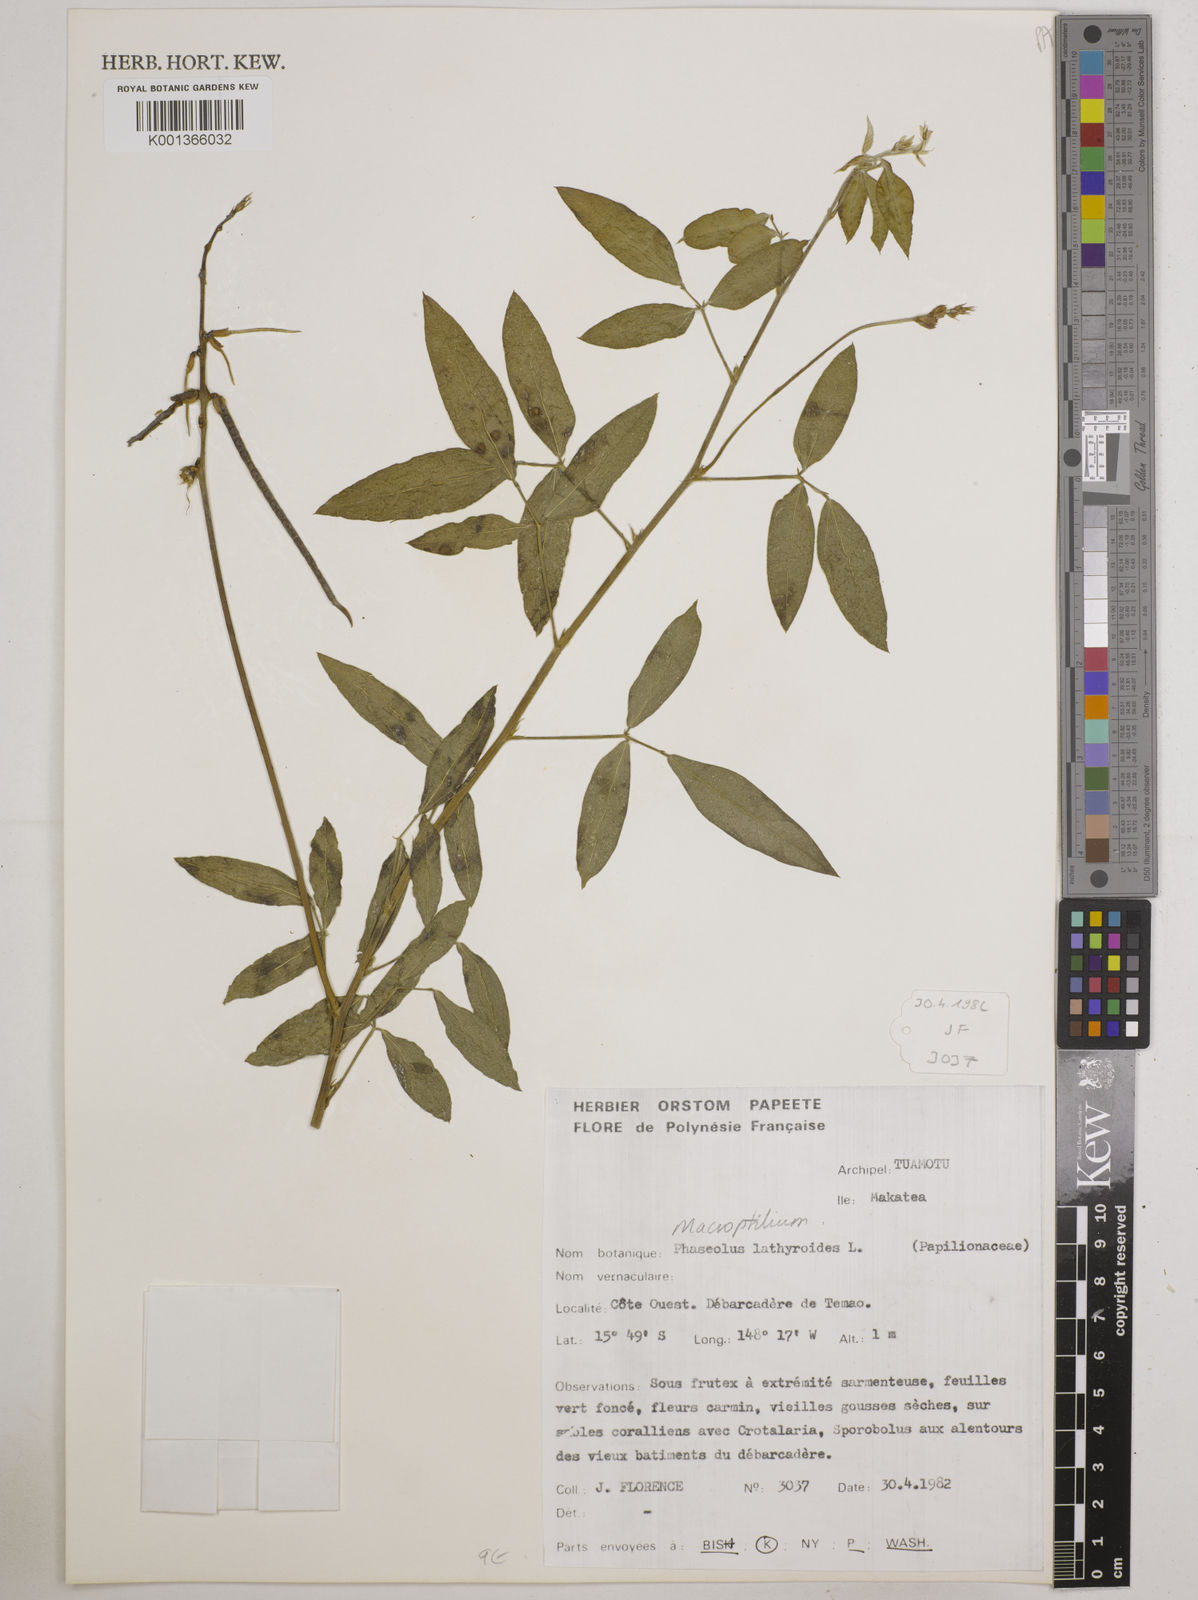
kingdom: Plantae
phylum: Tracheophyta
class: Magnoliopsida
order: Fabales
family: Fabaceae
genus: Macroptilium
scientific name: Macroptilium lathyroides
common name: Wild bushbean
